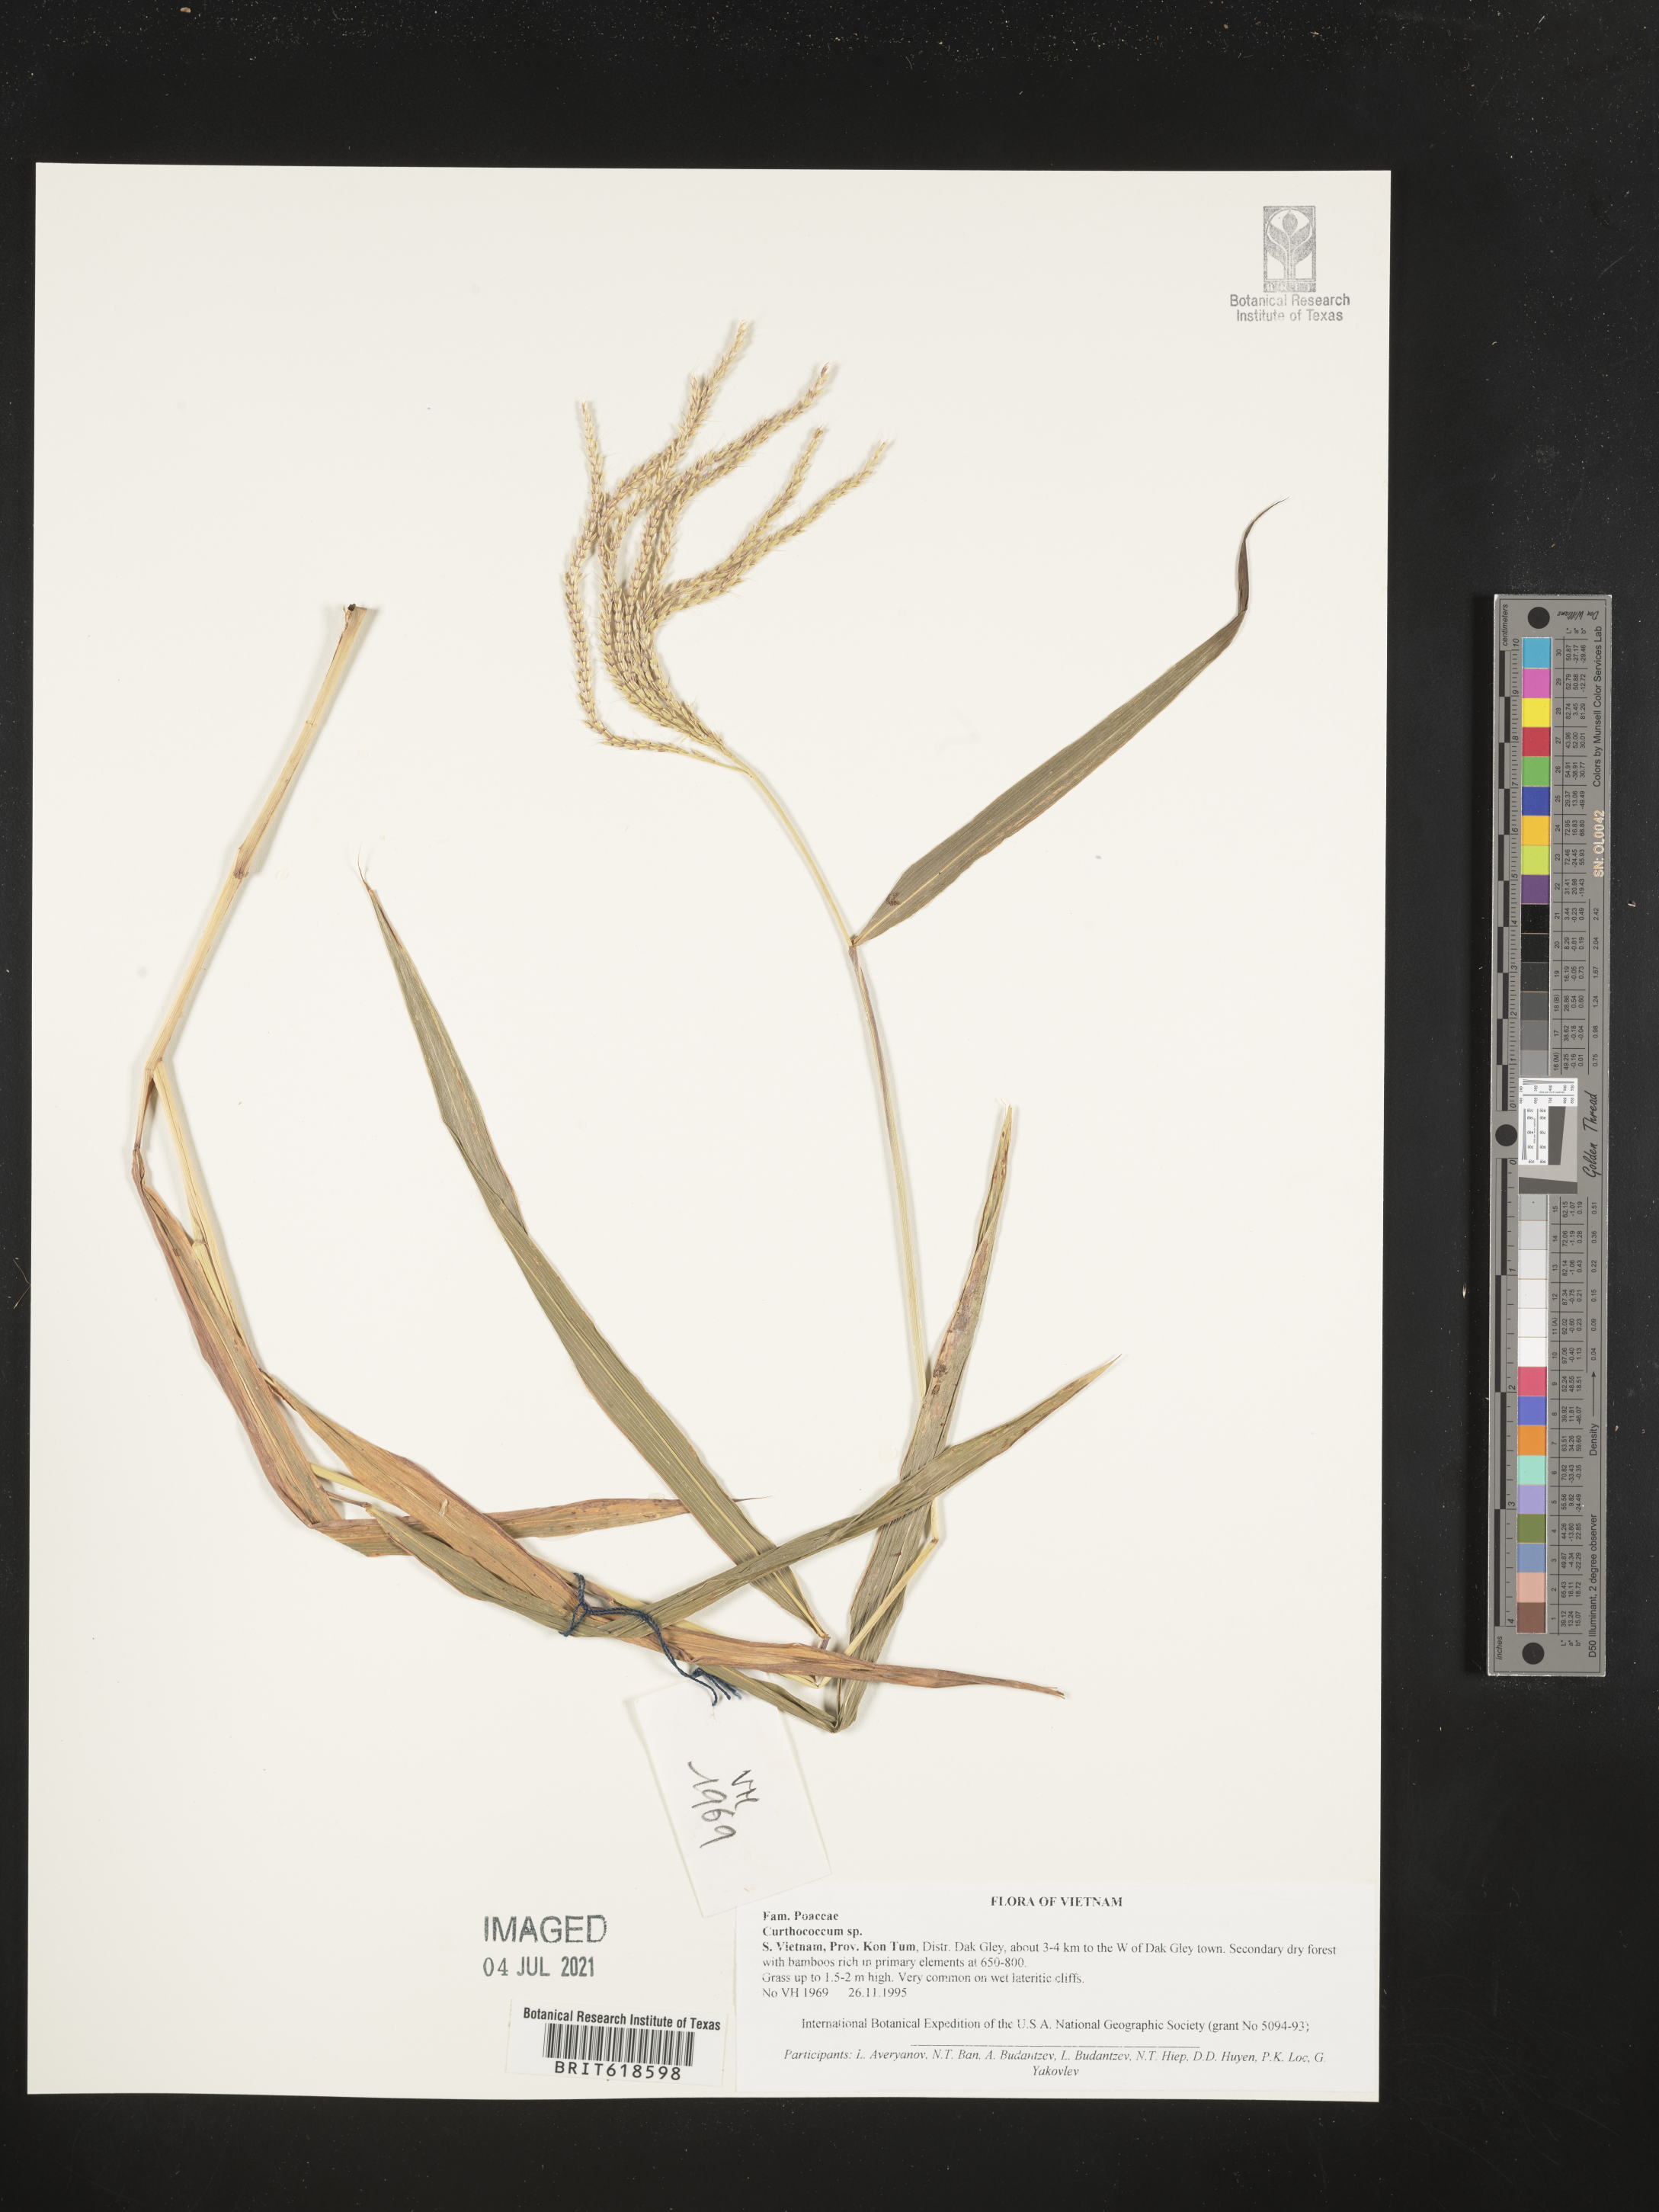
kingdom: Plantae
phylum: Tracheophyta
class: Liliopsida
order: Poales
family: Poaceae
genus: Cyrtococcum
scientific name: Cyrtococcum
